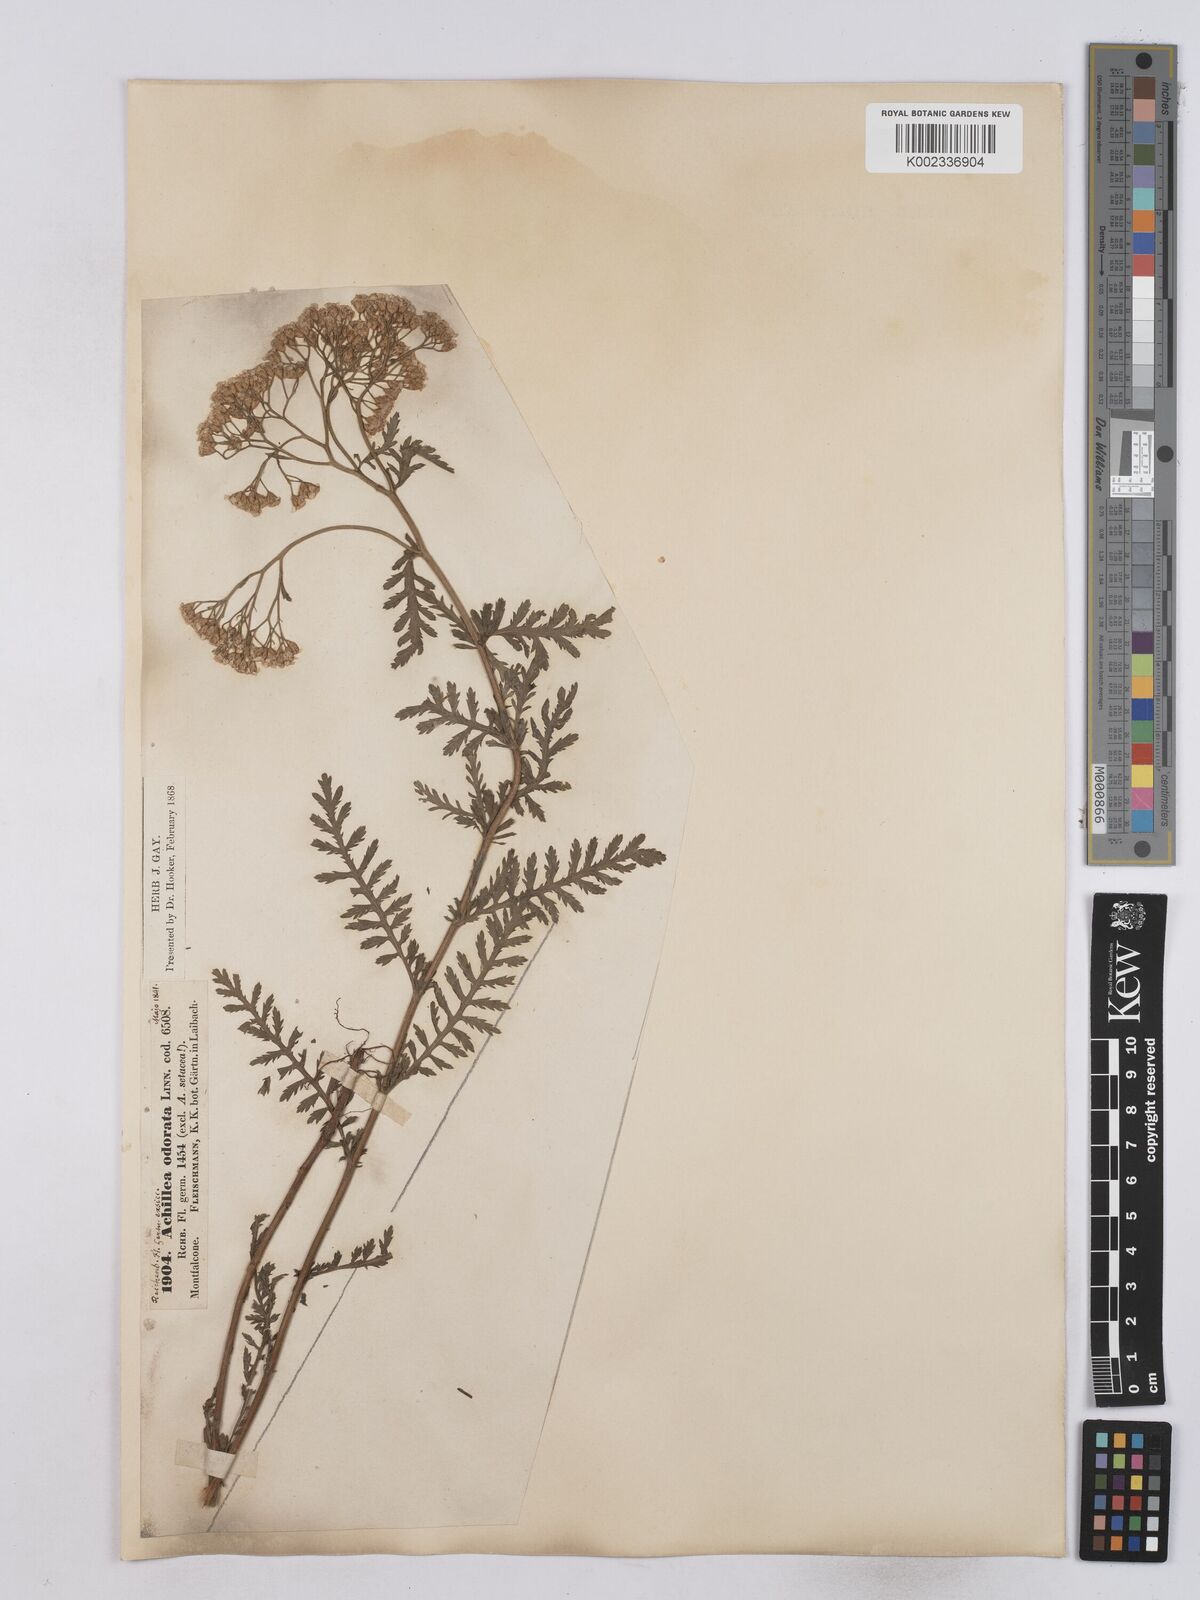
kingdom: Plantae
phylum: Tracheophyta
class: Magnoliopsida
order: Asterales
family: Asteraceae
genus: Achillea
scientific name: Achillea odorata
